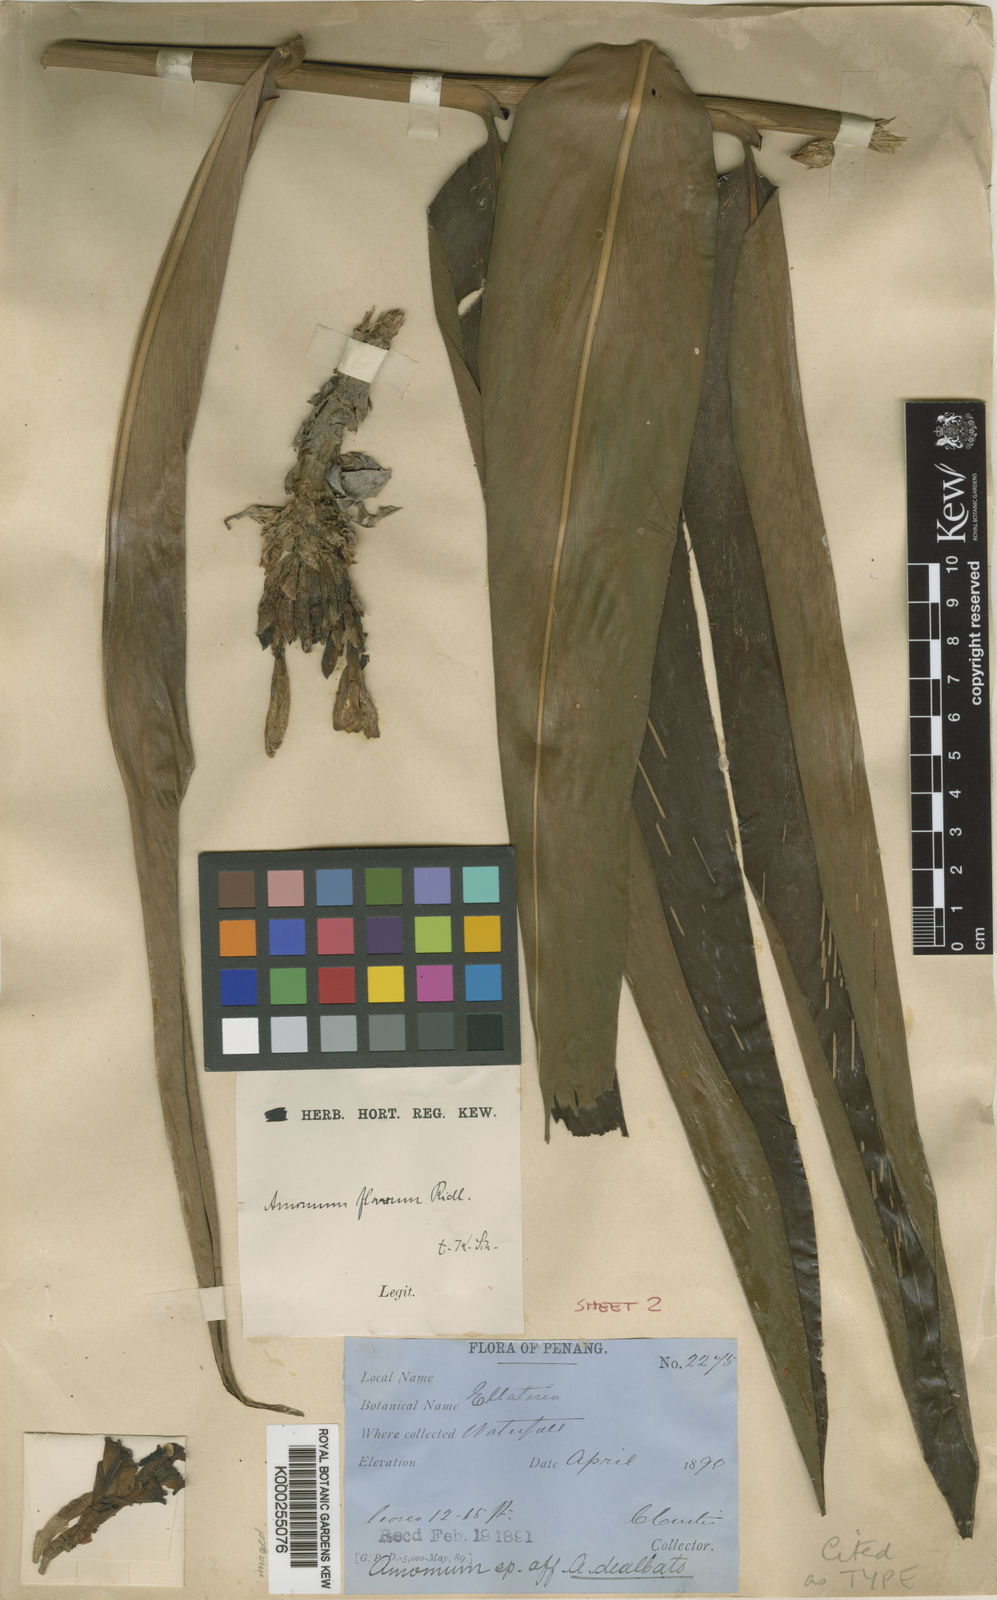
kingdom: Plantae
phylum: Tracheophyta
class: Liliopsida
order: Zingiberales
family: Zingiberaceae
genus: Meistera
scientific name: Meistera aculeata
